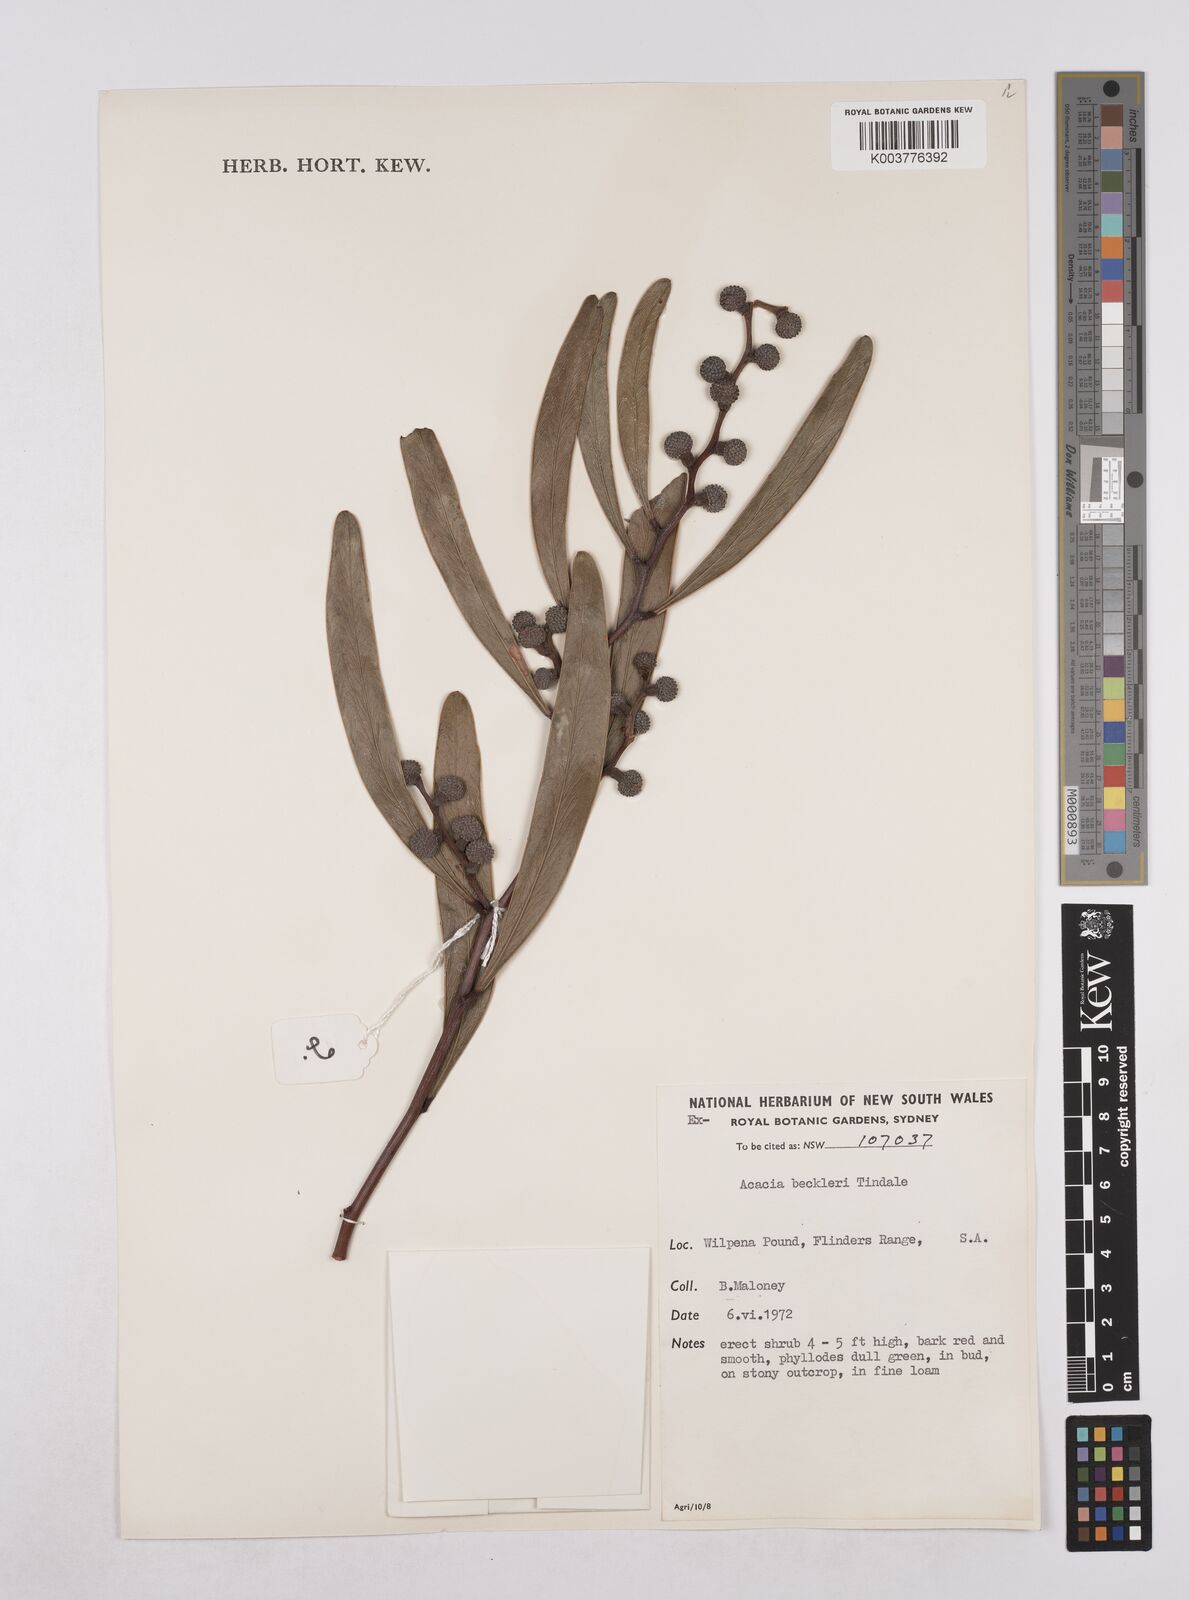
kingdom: Plantae
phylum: Tracheophyta
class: Magnoliopsida
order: Fabales
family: Fabaceae
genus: Acacia
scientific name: Acacia beckleri
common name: Barrier range wattle
